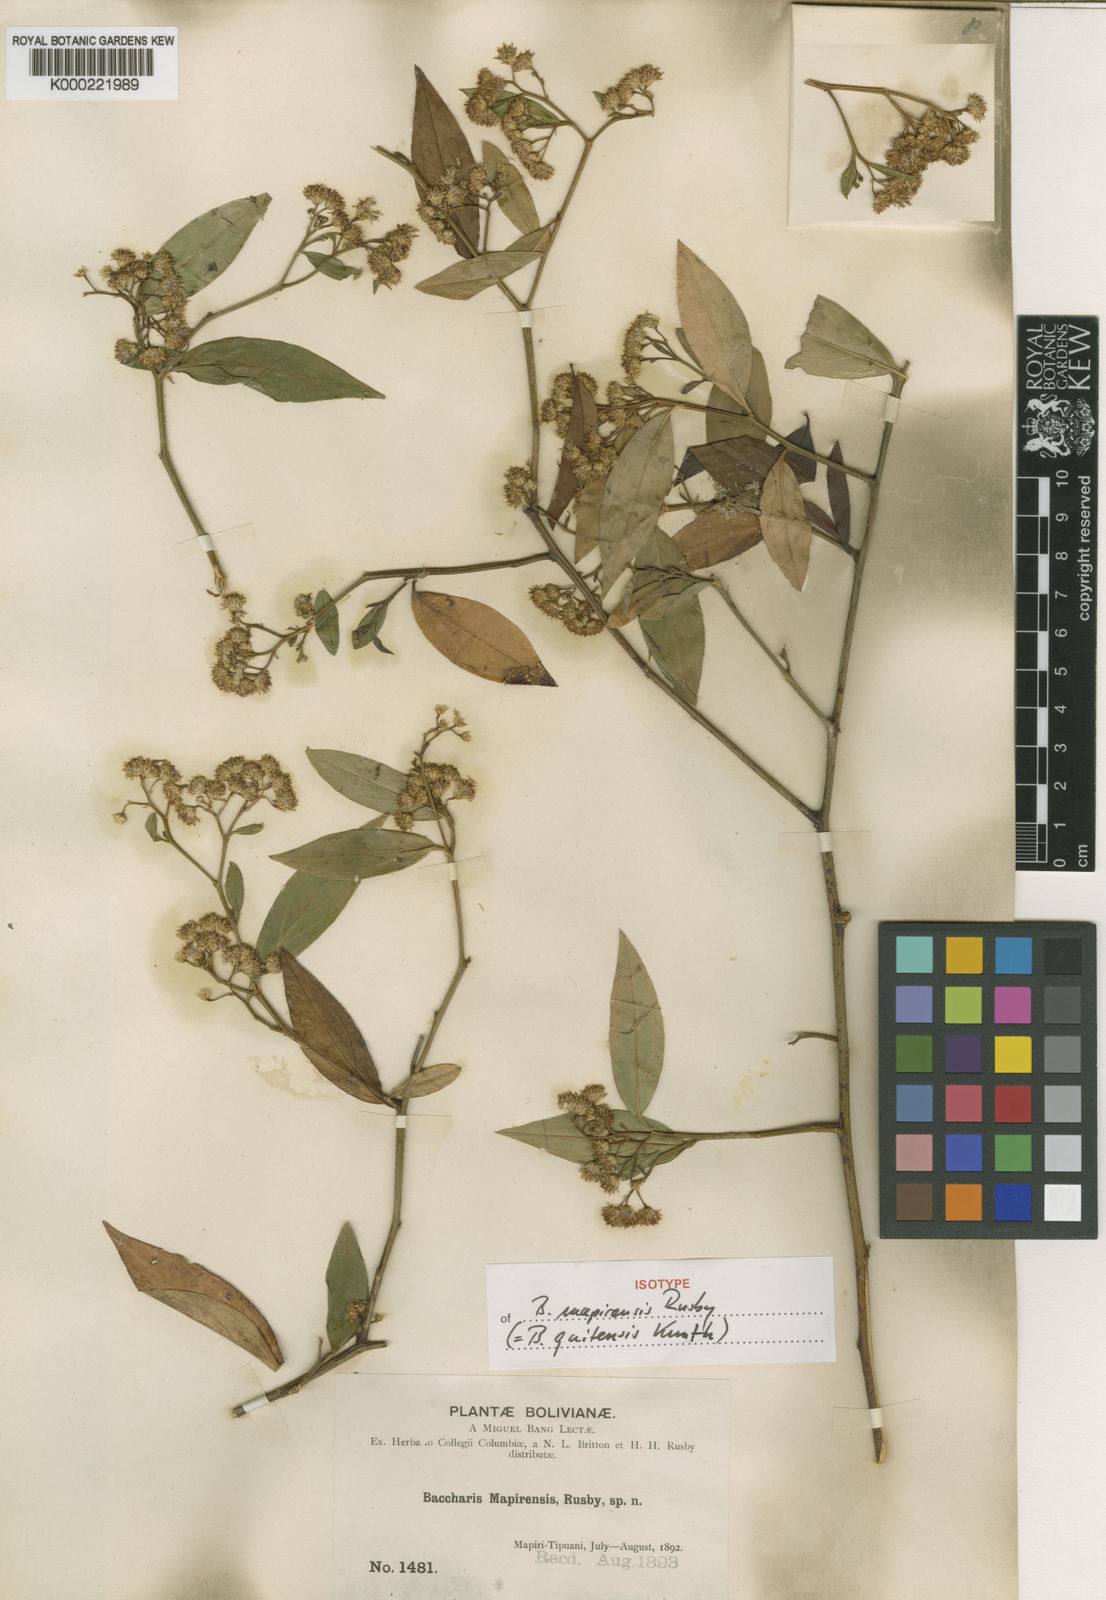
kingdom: Plantae
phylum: Tracheophyta
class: Magnoliopsida
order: Asterales
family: Asteraceae
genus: Baccharis
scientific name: Baccharis quitensis
